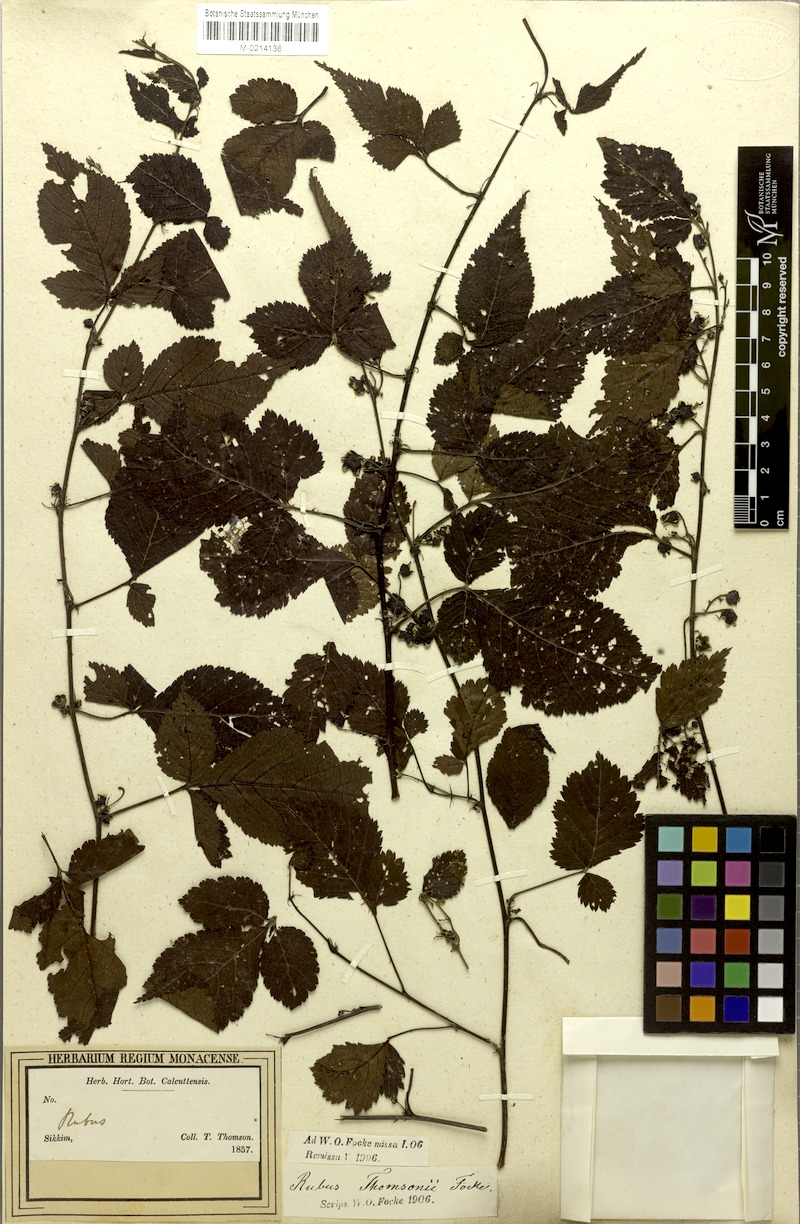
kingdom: Plantae
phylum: Tracheophyta
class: Magnoliopsida
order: Rosales
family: Rosaceae
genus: Rubus
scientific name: Rubus thomsonii
